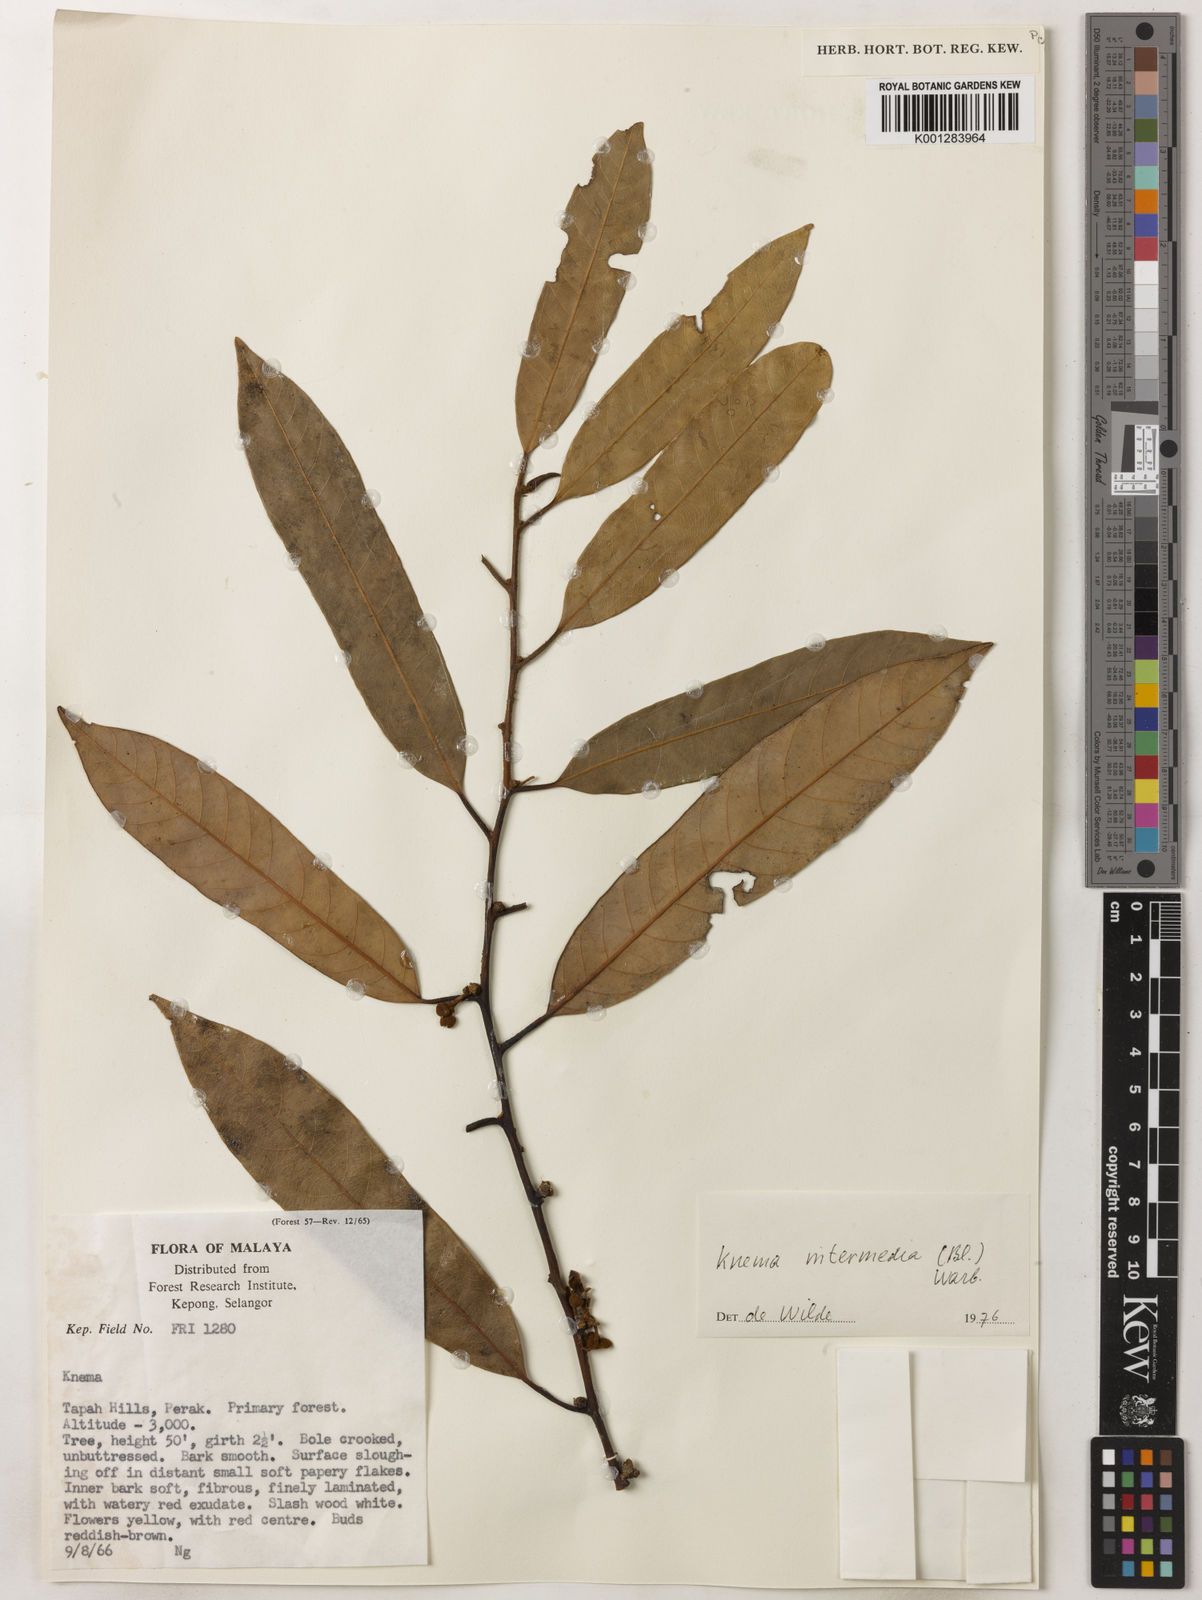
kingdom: Plantae
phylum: Tracheophyta
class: Magnoliopsida
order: Magnoliales
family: Myristicaceae
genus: Knema
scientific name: Knema intermedia
